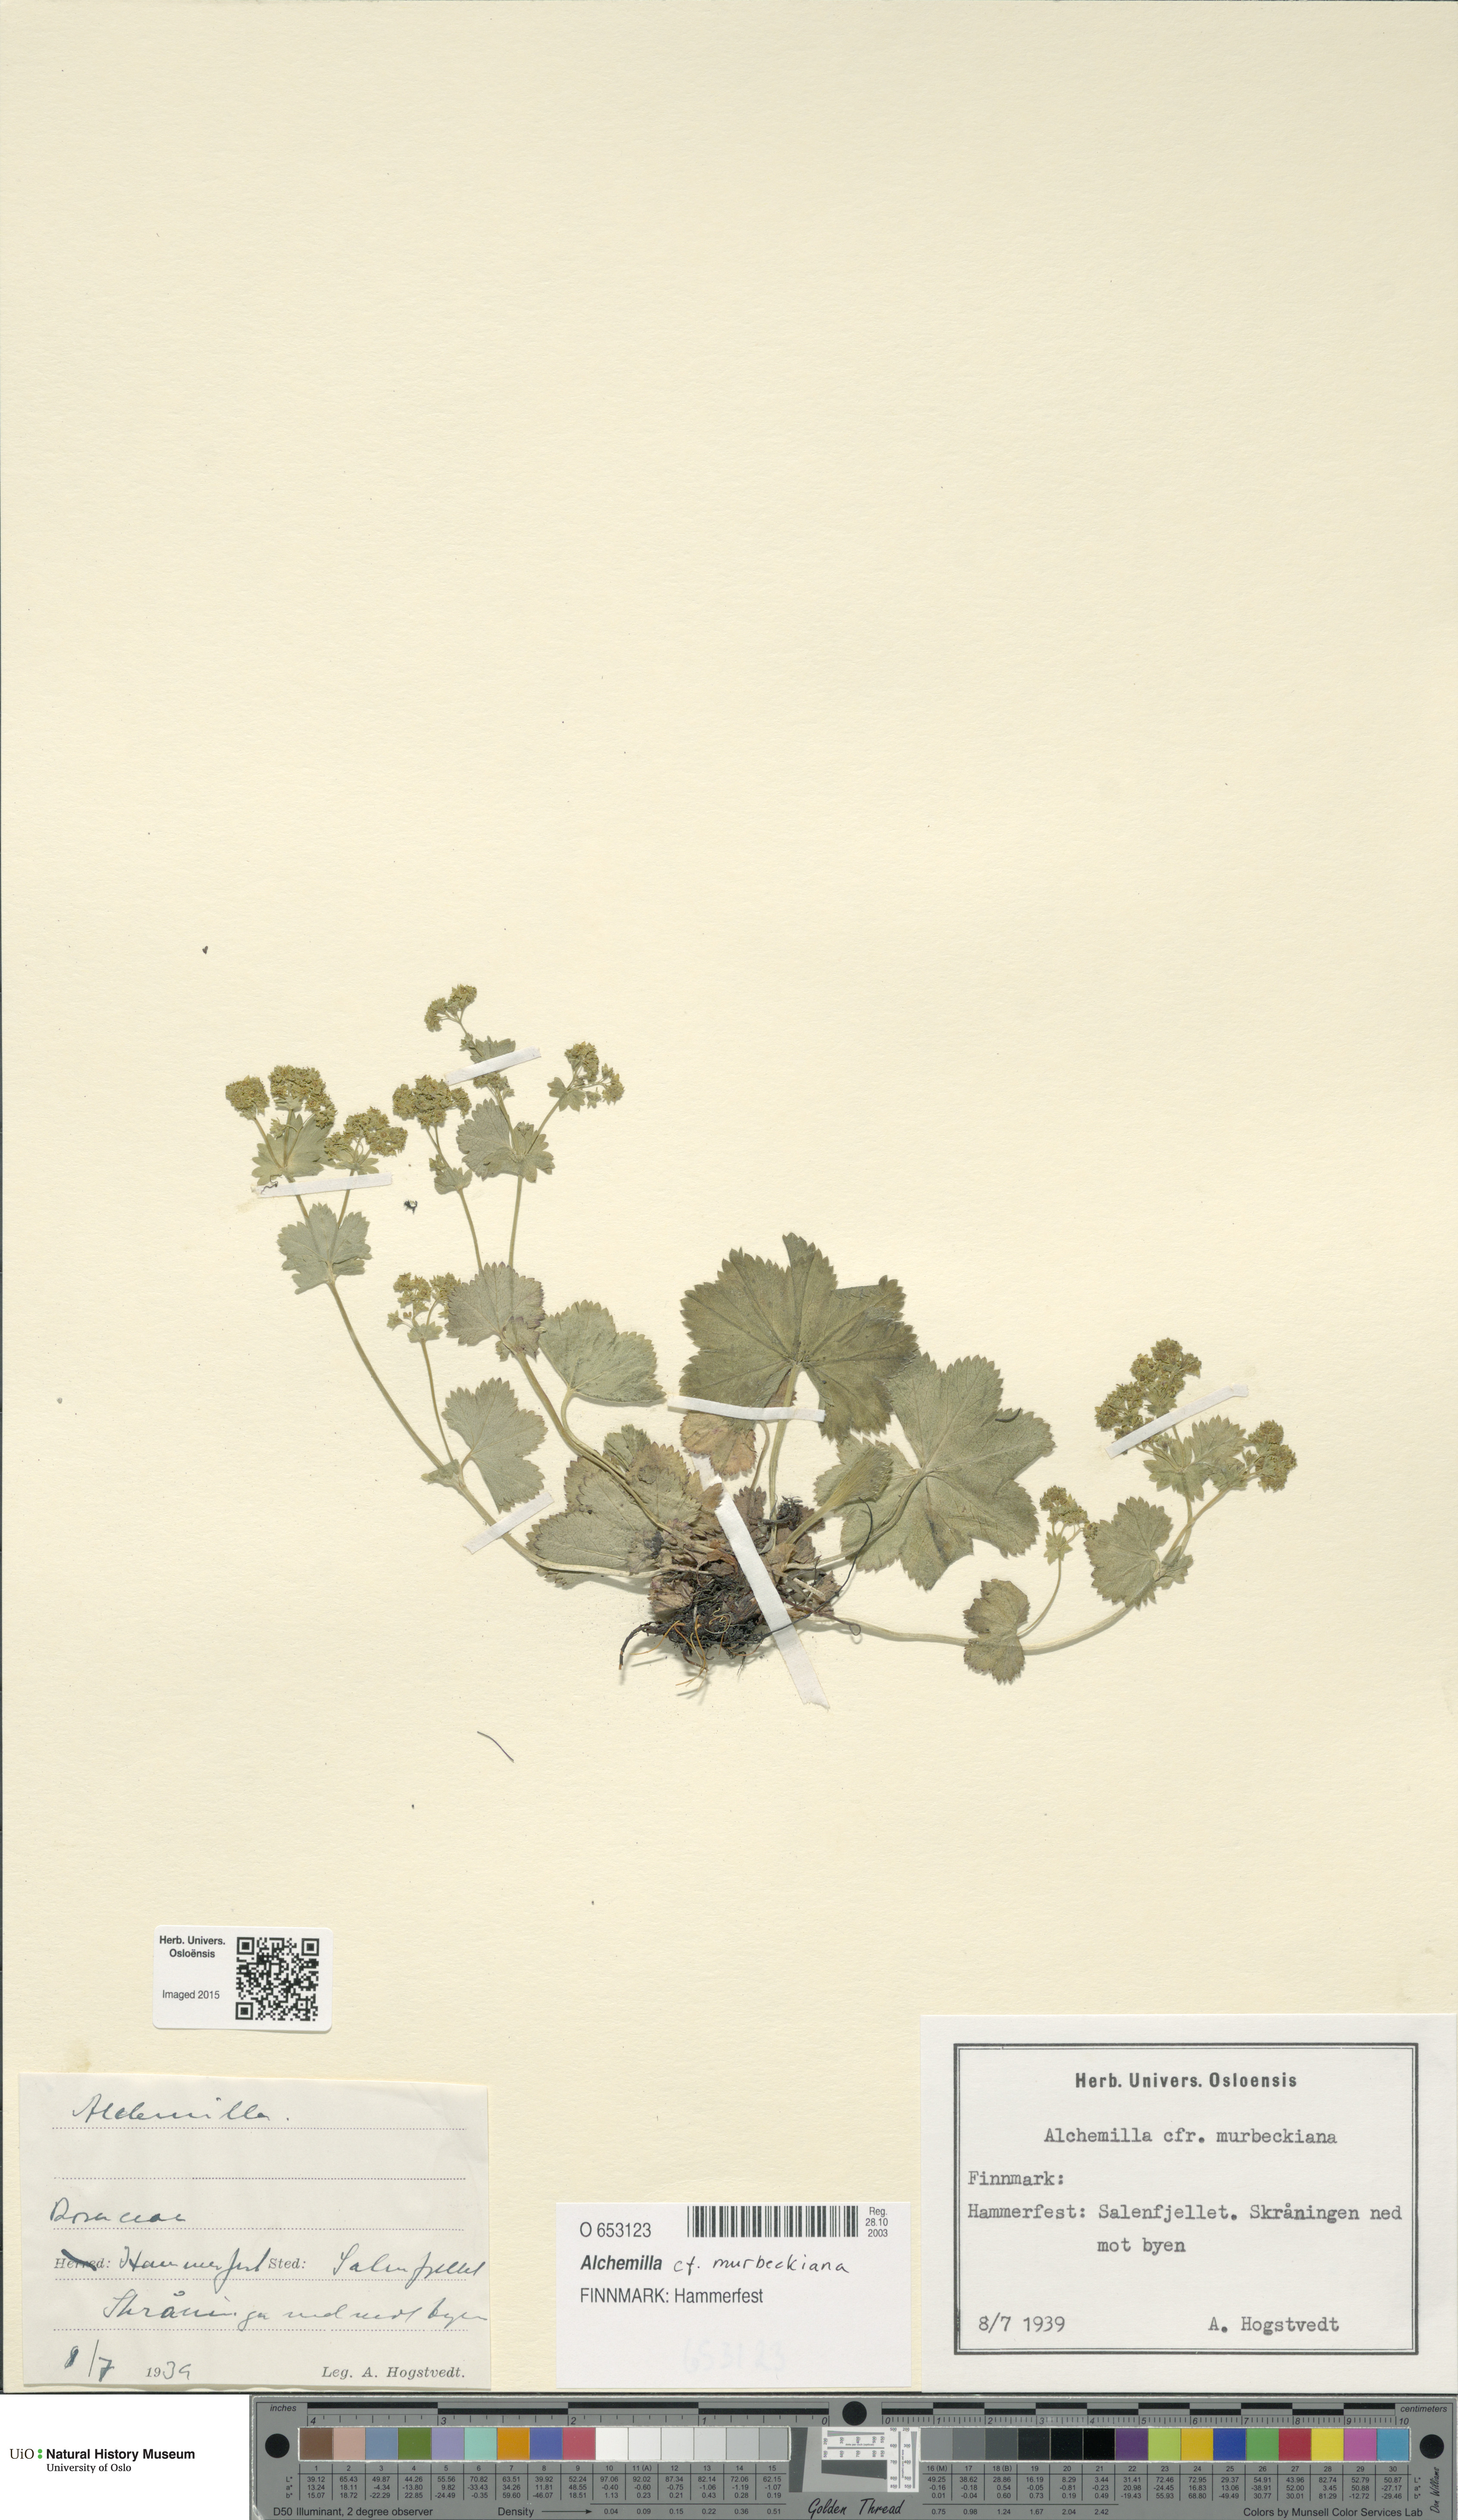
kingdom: Plantae
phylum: Tracheophyta
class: Magnoliopsida
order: Rosales
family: Rosaceae
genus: Alchemilla
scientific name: Alchemilla murbeckiana
